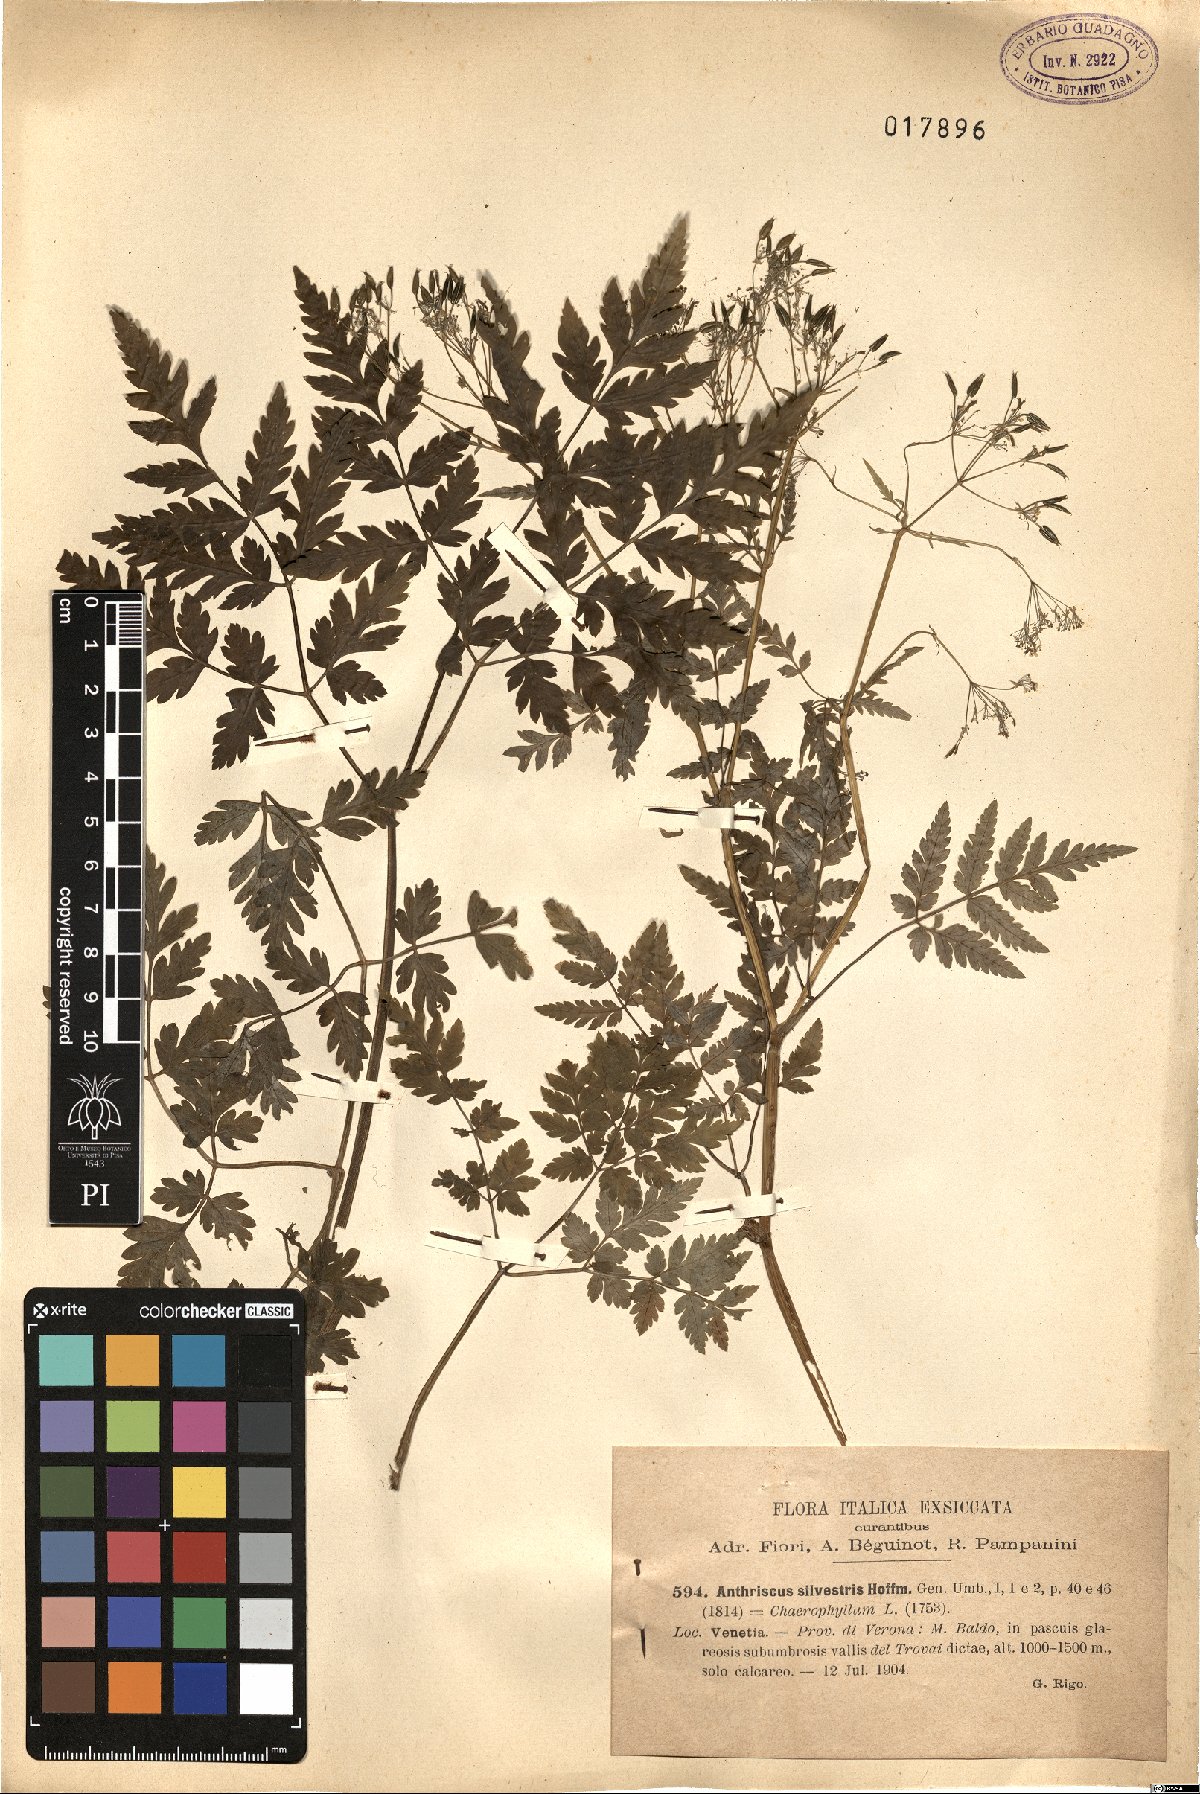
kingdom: Plantae
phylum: Tracheophyta
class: Magnoliopsida
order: Apiales
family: Apiaceae
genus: Anthriscus
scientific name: Anthriscus sylvestris
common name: Cow parsley
